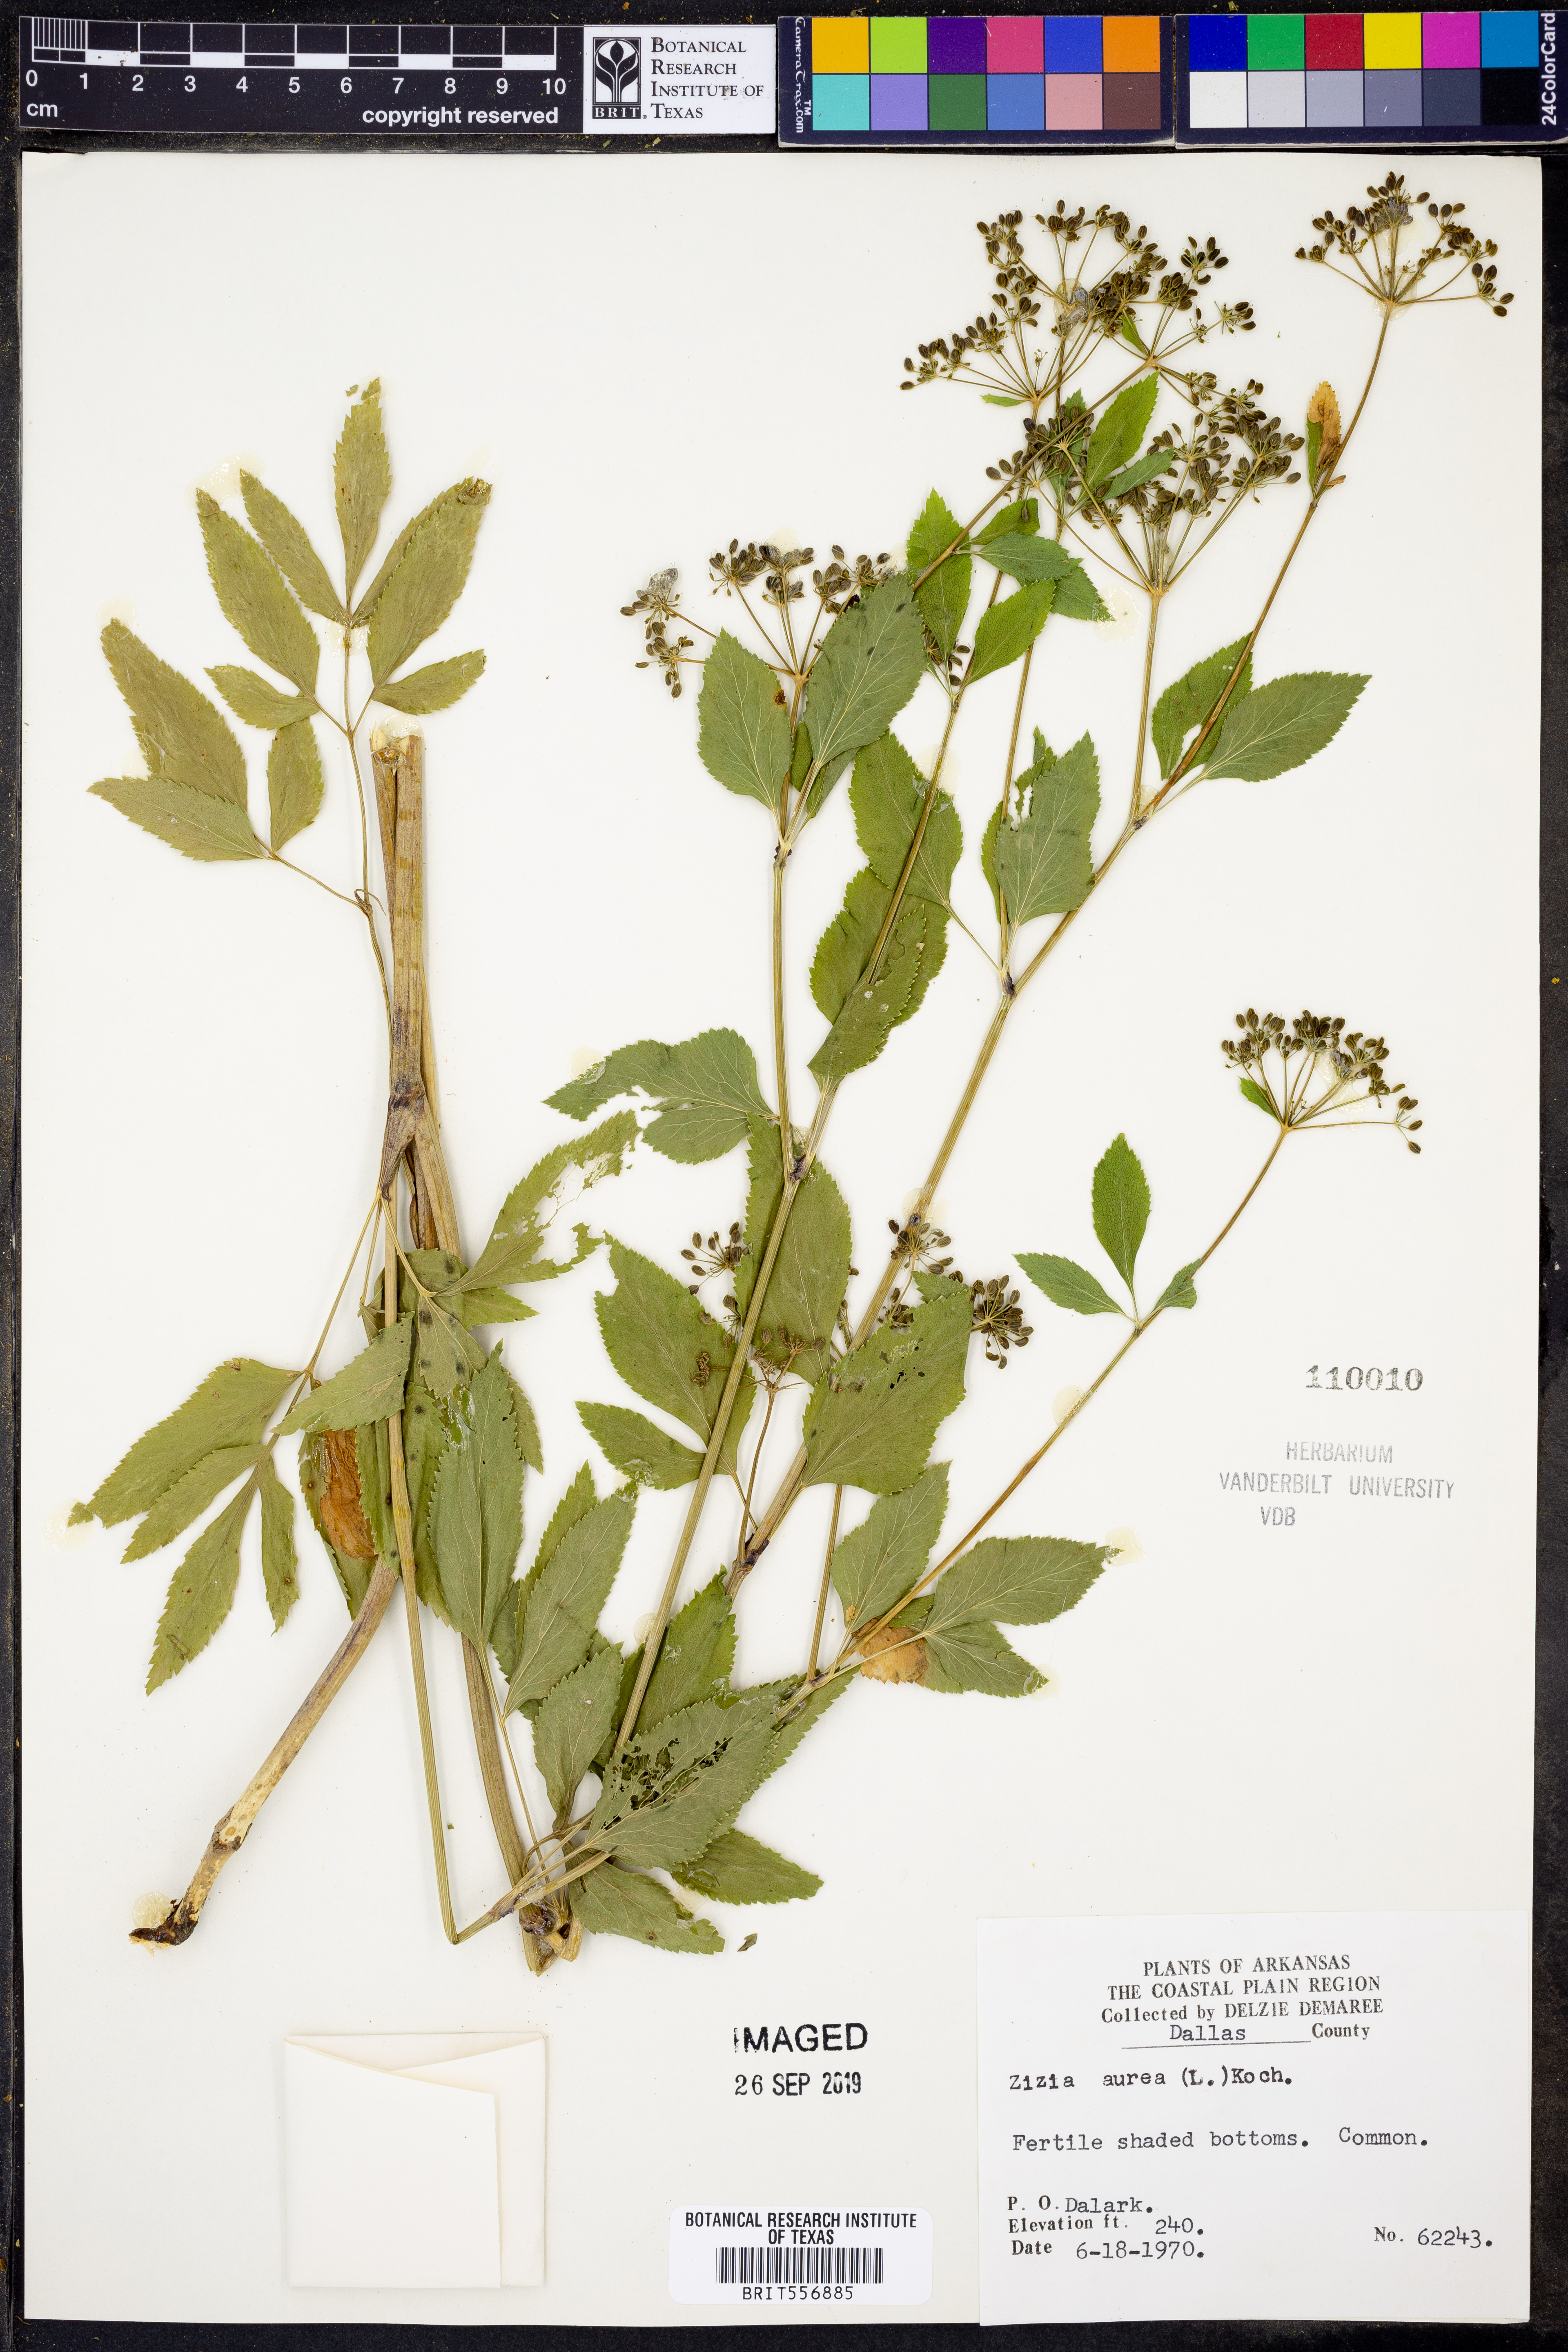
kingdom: Plantae
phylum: Tracheophyta
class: Magnoliopsida
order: Apiales
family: Apiaceae
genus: Zizia
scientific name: Zizia aurea
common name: Golden alexanders
